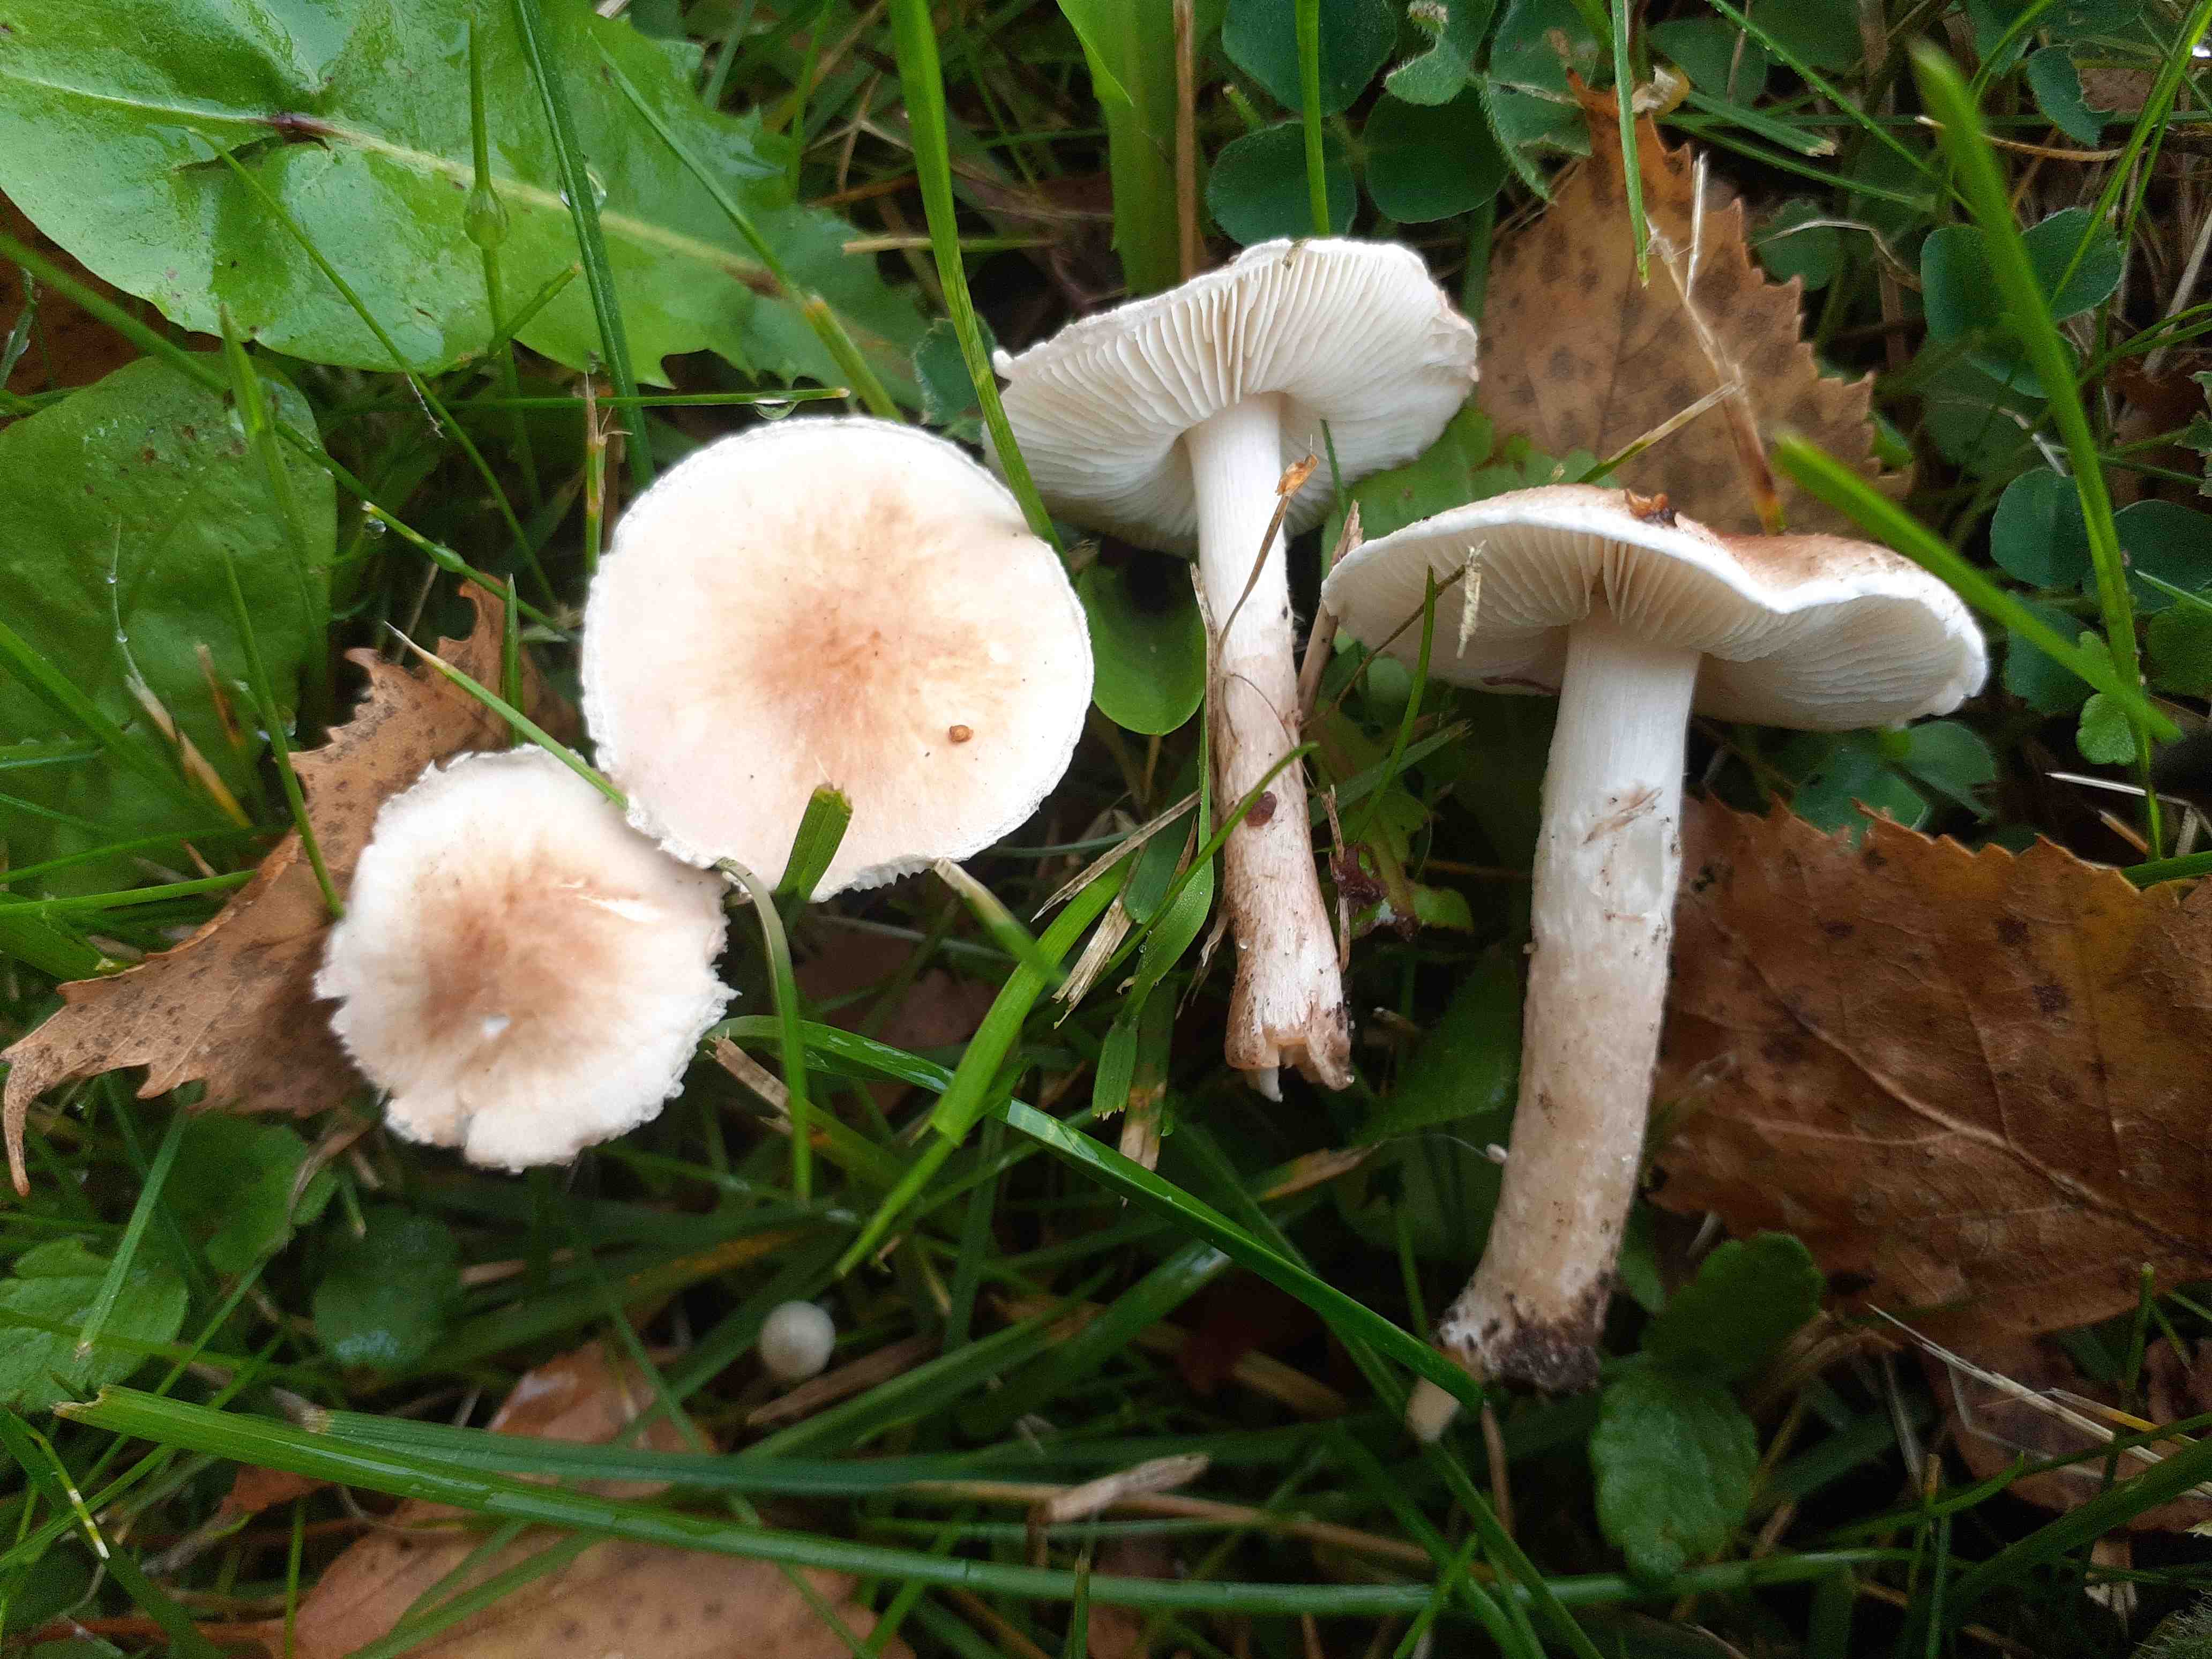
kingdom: Fungi
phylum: Basidiomycota
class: Agaricomycetes
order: Agaricales
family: Agaricaceae
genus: Lepiota
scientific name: Lepiota subincarnata
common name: kødfarvet parasolhat
